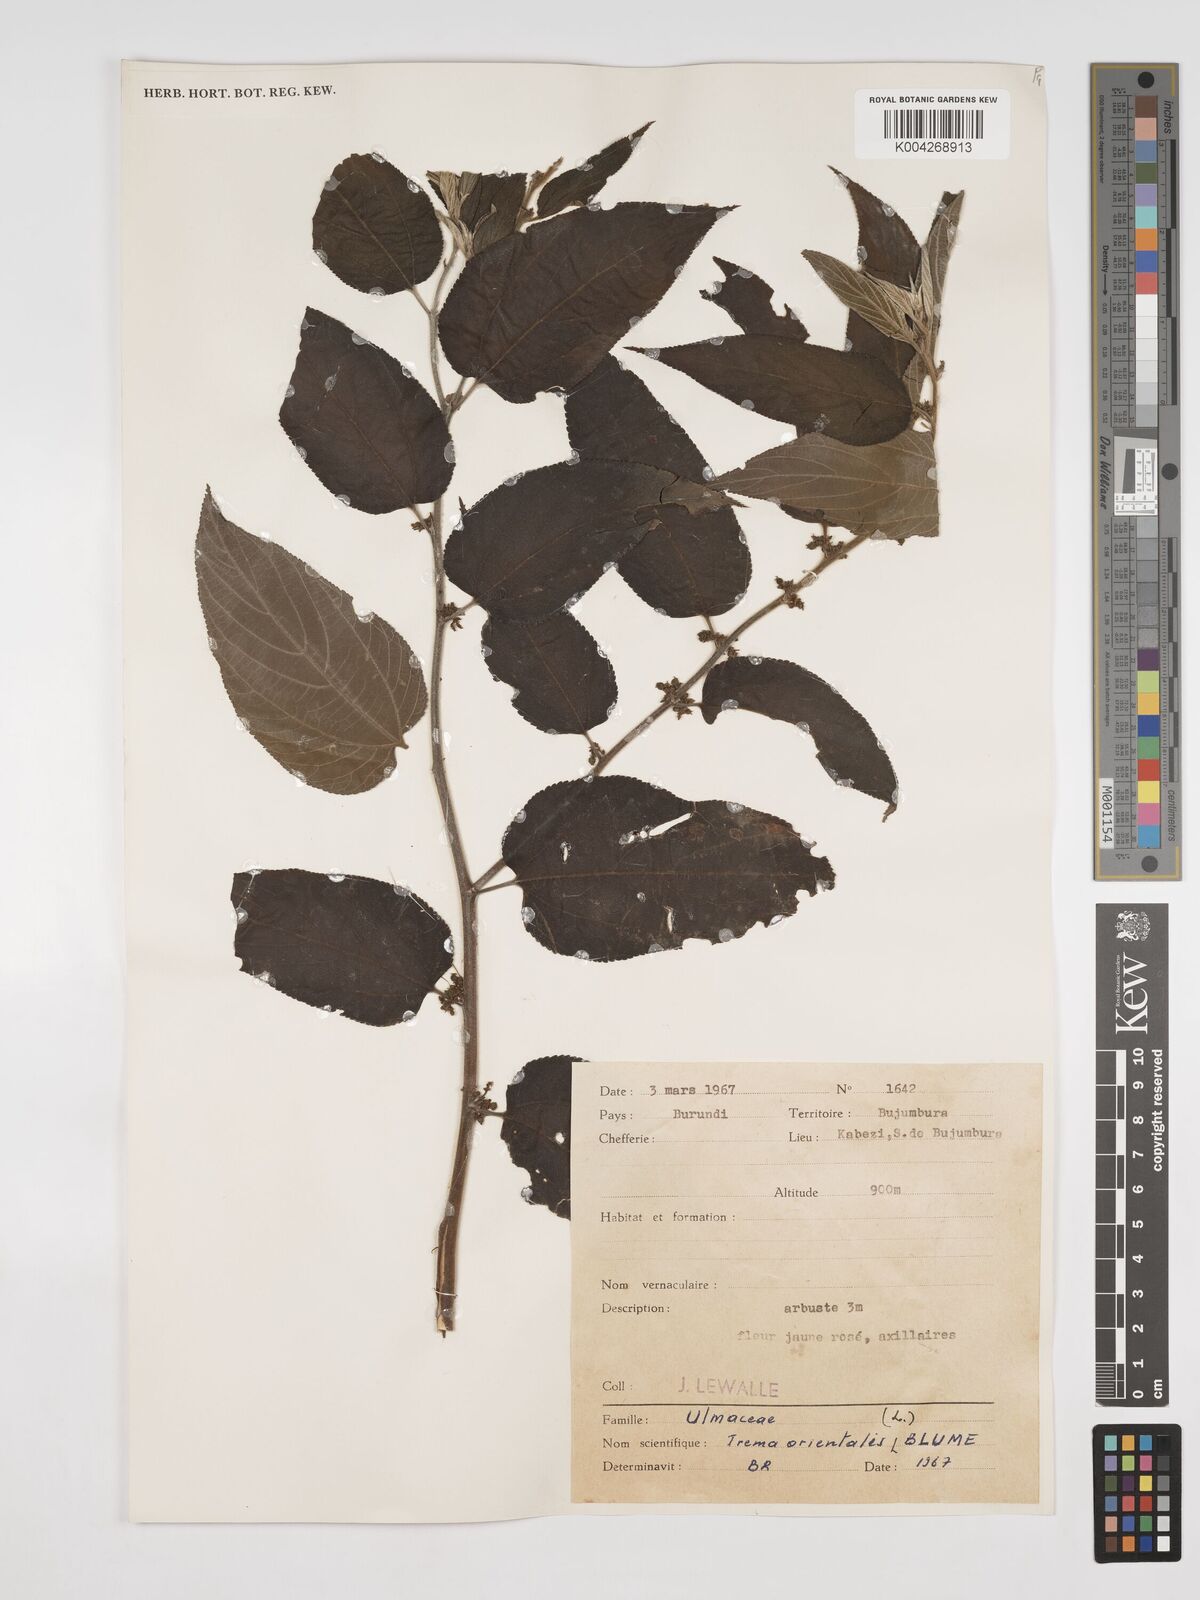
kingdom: Plantae
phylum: Tracheophyta
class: Magnoliopsida
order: Rosales
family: Cannabaceae
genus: Trema
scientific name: Trema orientale
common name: Indian charcoal tree
